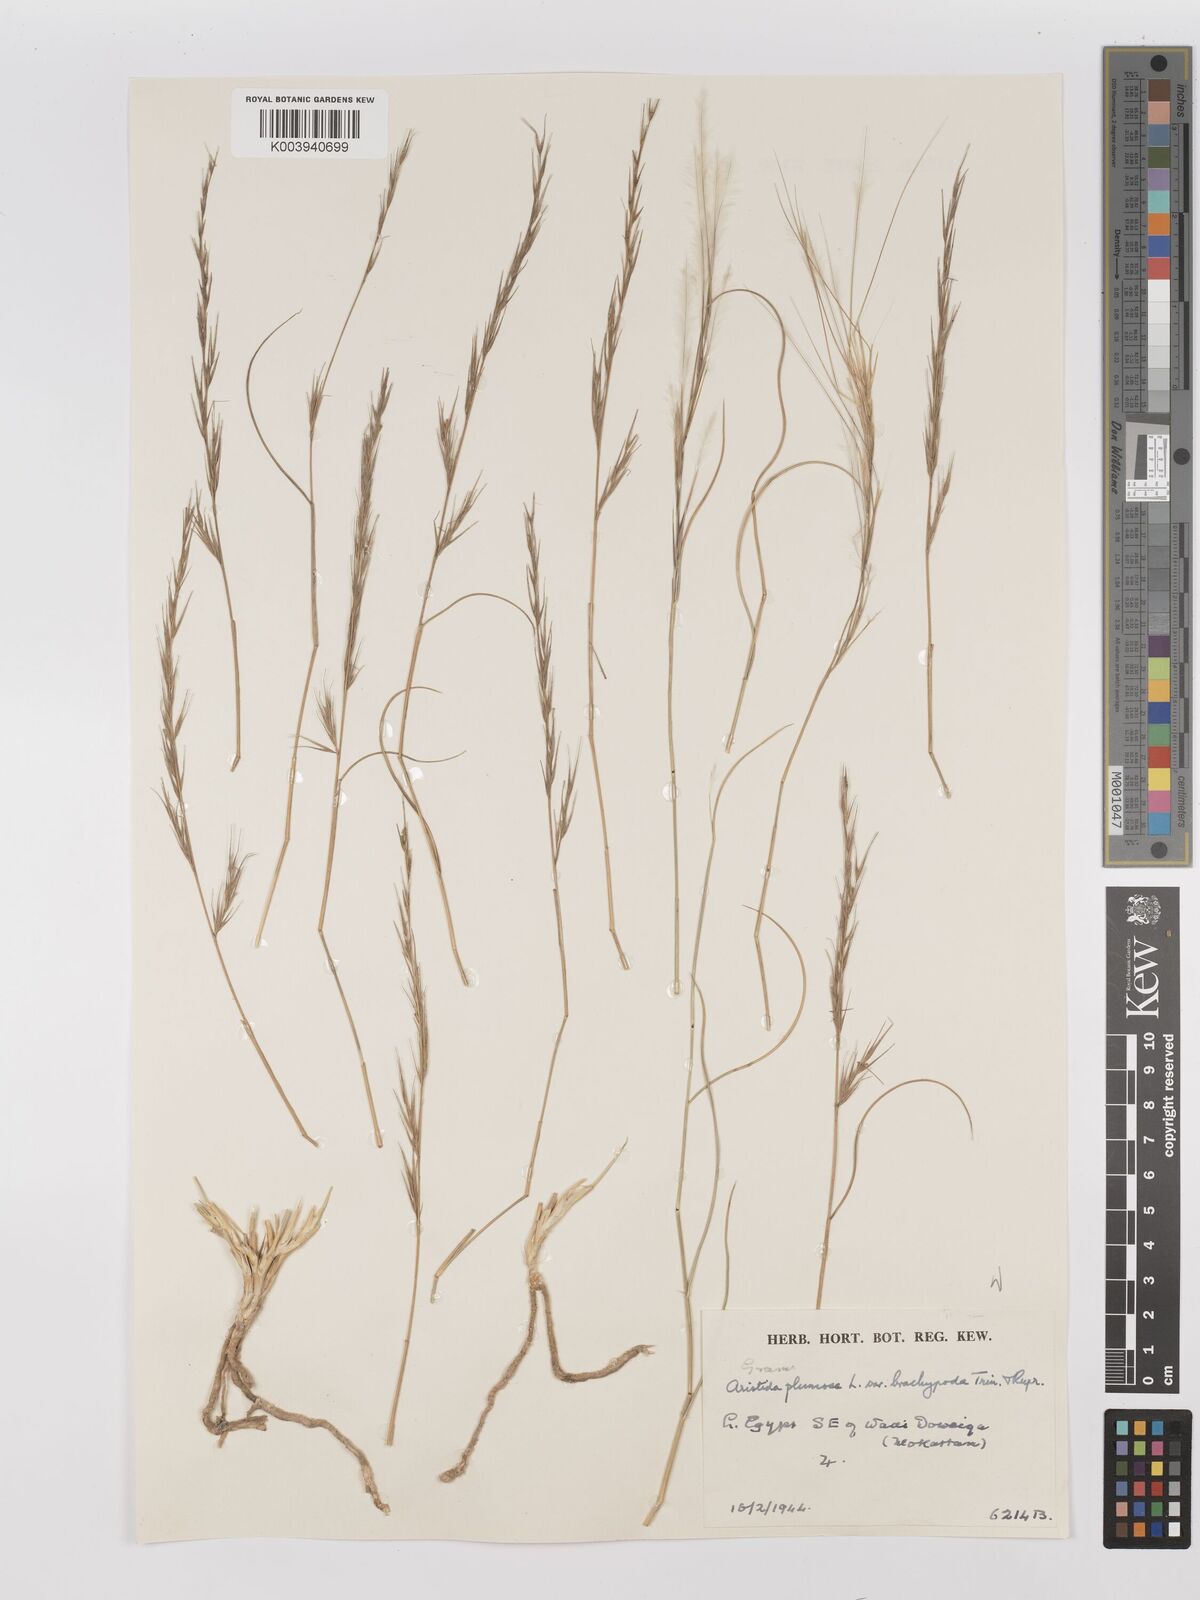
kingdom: Plantae
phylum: Tracheophyta
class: Liliopsida
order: Poales
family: Poaceae
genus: Stipagrostis
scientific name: Stipagrostis plumosa
